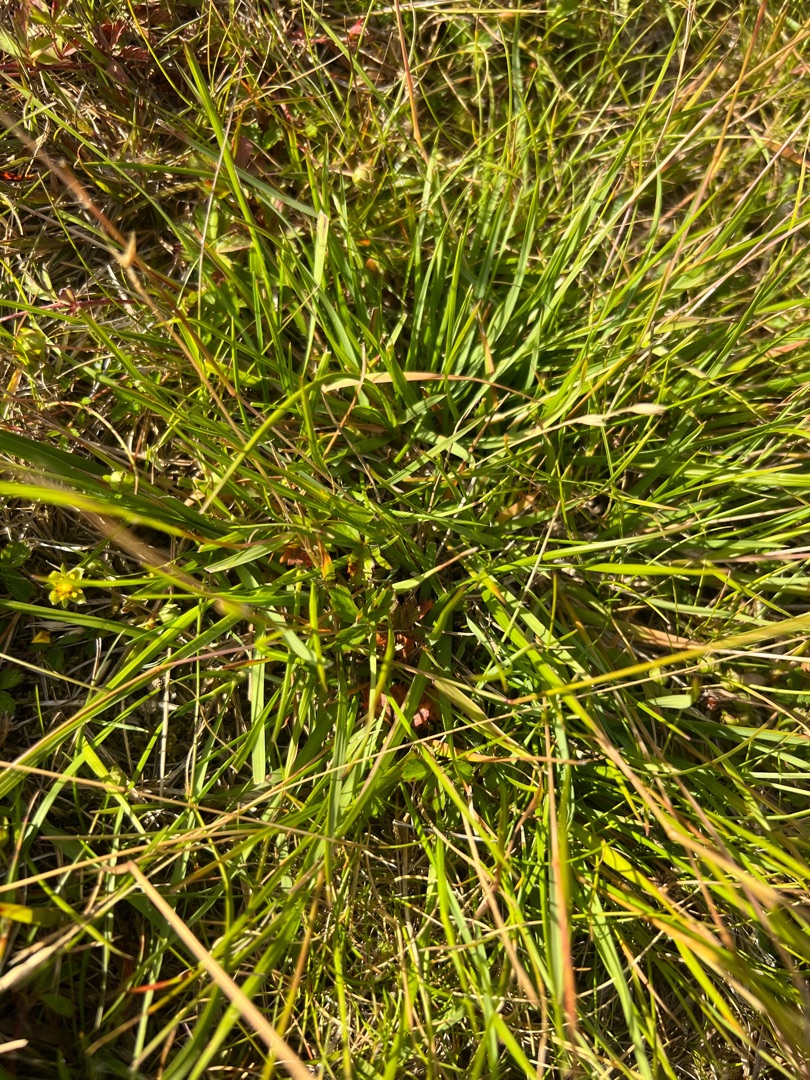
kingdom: Plantae
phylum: Tracheophyta
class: Liliopsida
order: Poales
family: Poaceae
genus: Danthonia
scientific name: Danthonia decumbens
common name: Tandbælg
